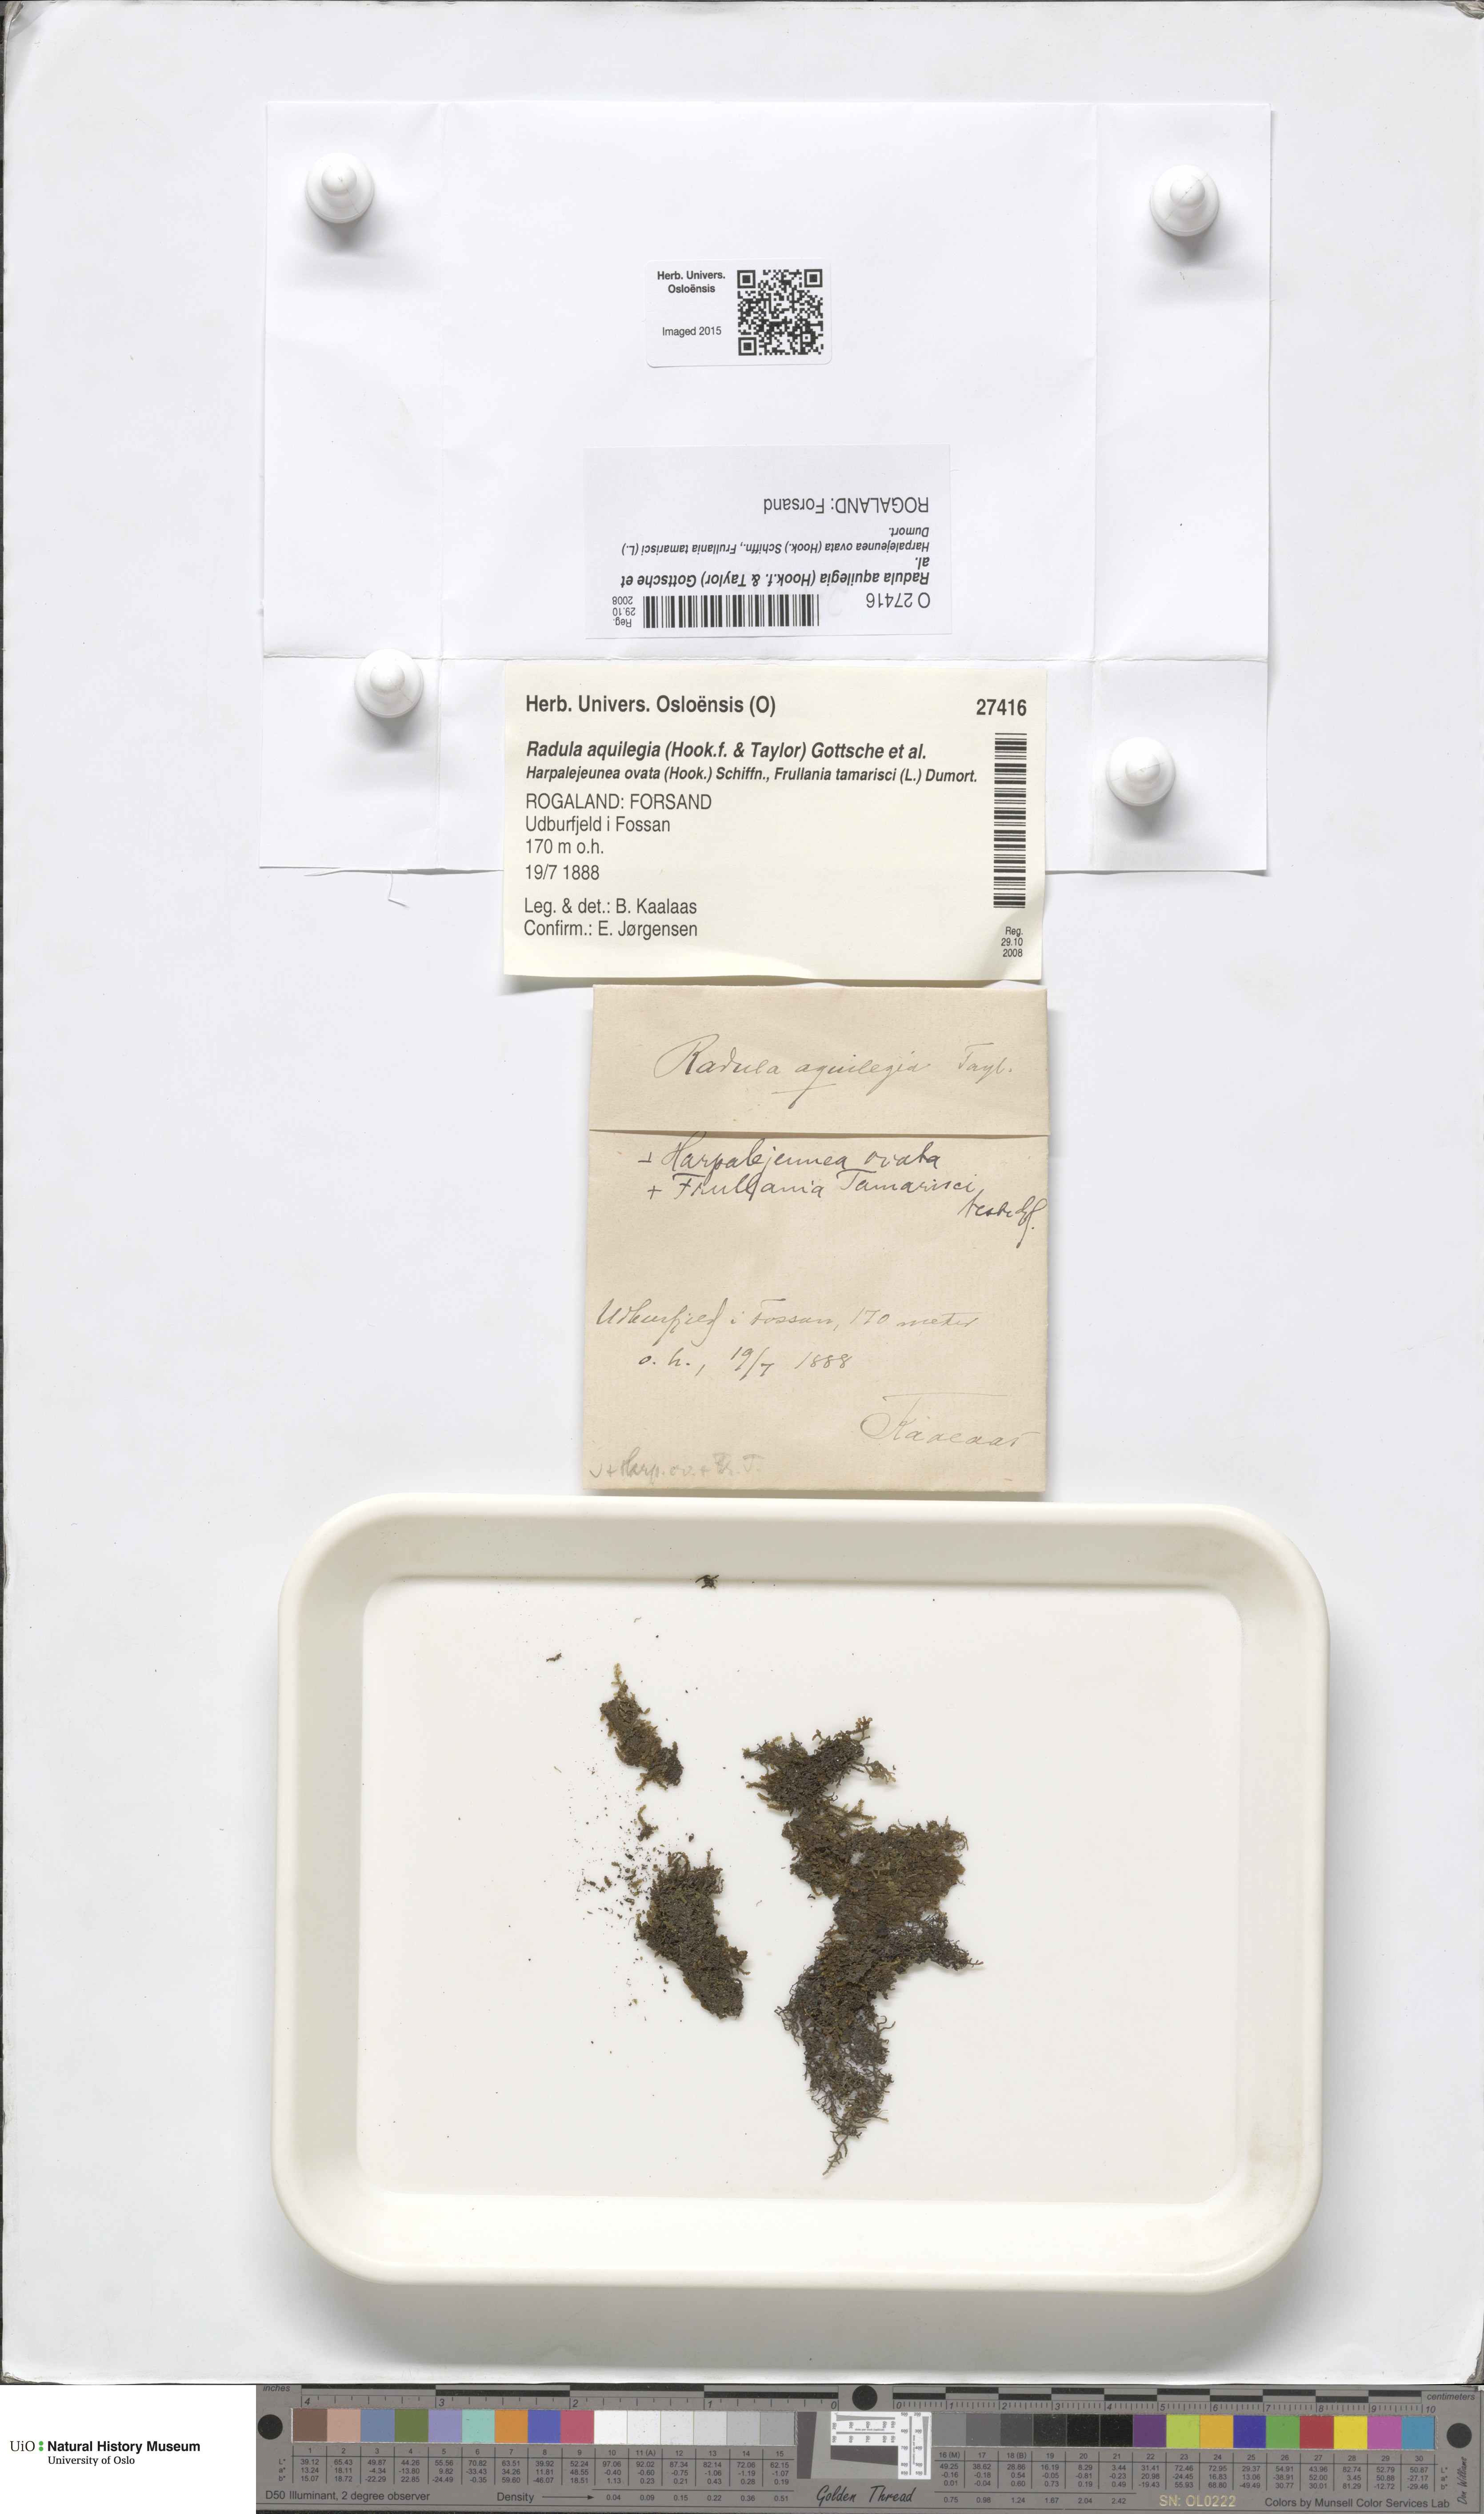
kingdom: Plantae
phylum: Marchantiophyta
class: Jungermanniopsida
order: Porellales
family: Radulaceae
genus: Radula
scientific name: Radula aquilegia
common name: Brown scalewort
